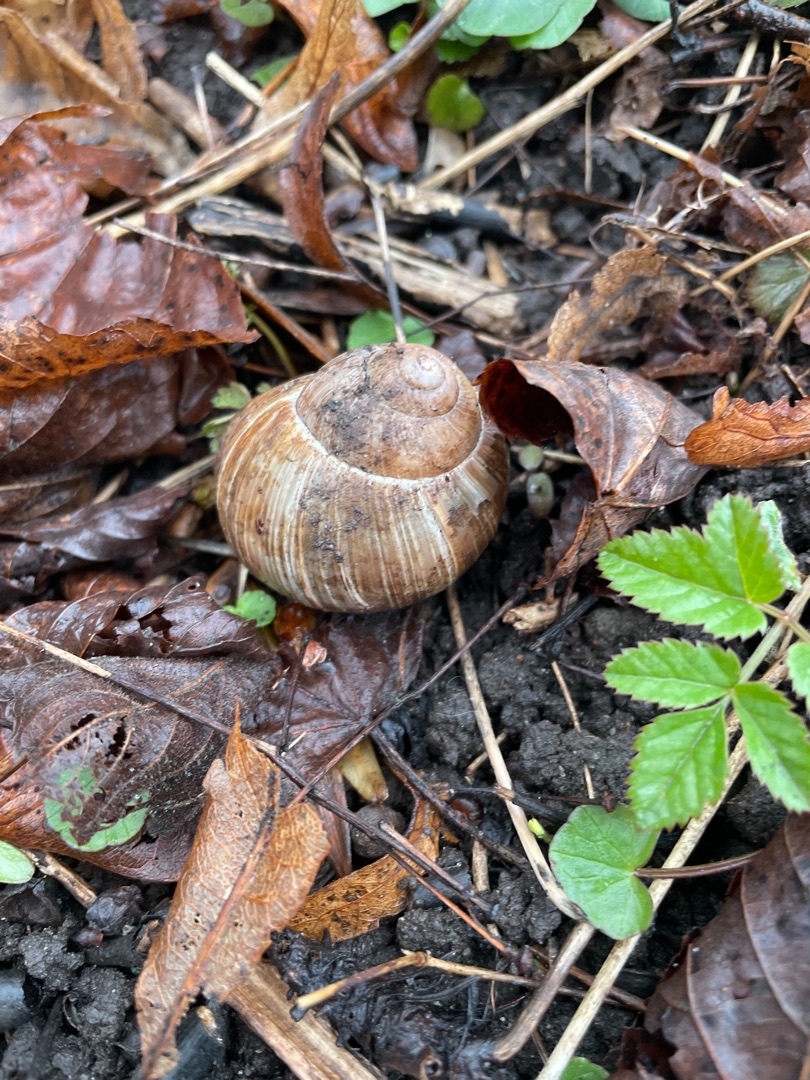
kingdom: Animalia
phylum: Mollusca
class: Gastropoda
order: Stylommatophora
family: Helicidae
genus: Helix
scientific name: Helix pomatia
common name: Vinbjergsnegl
